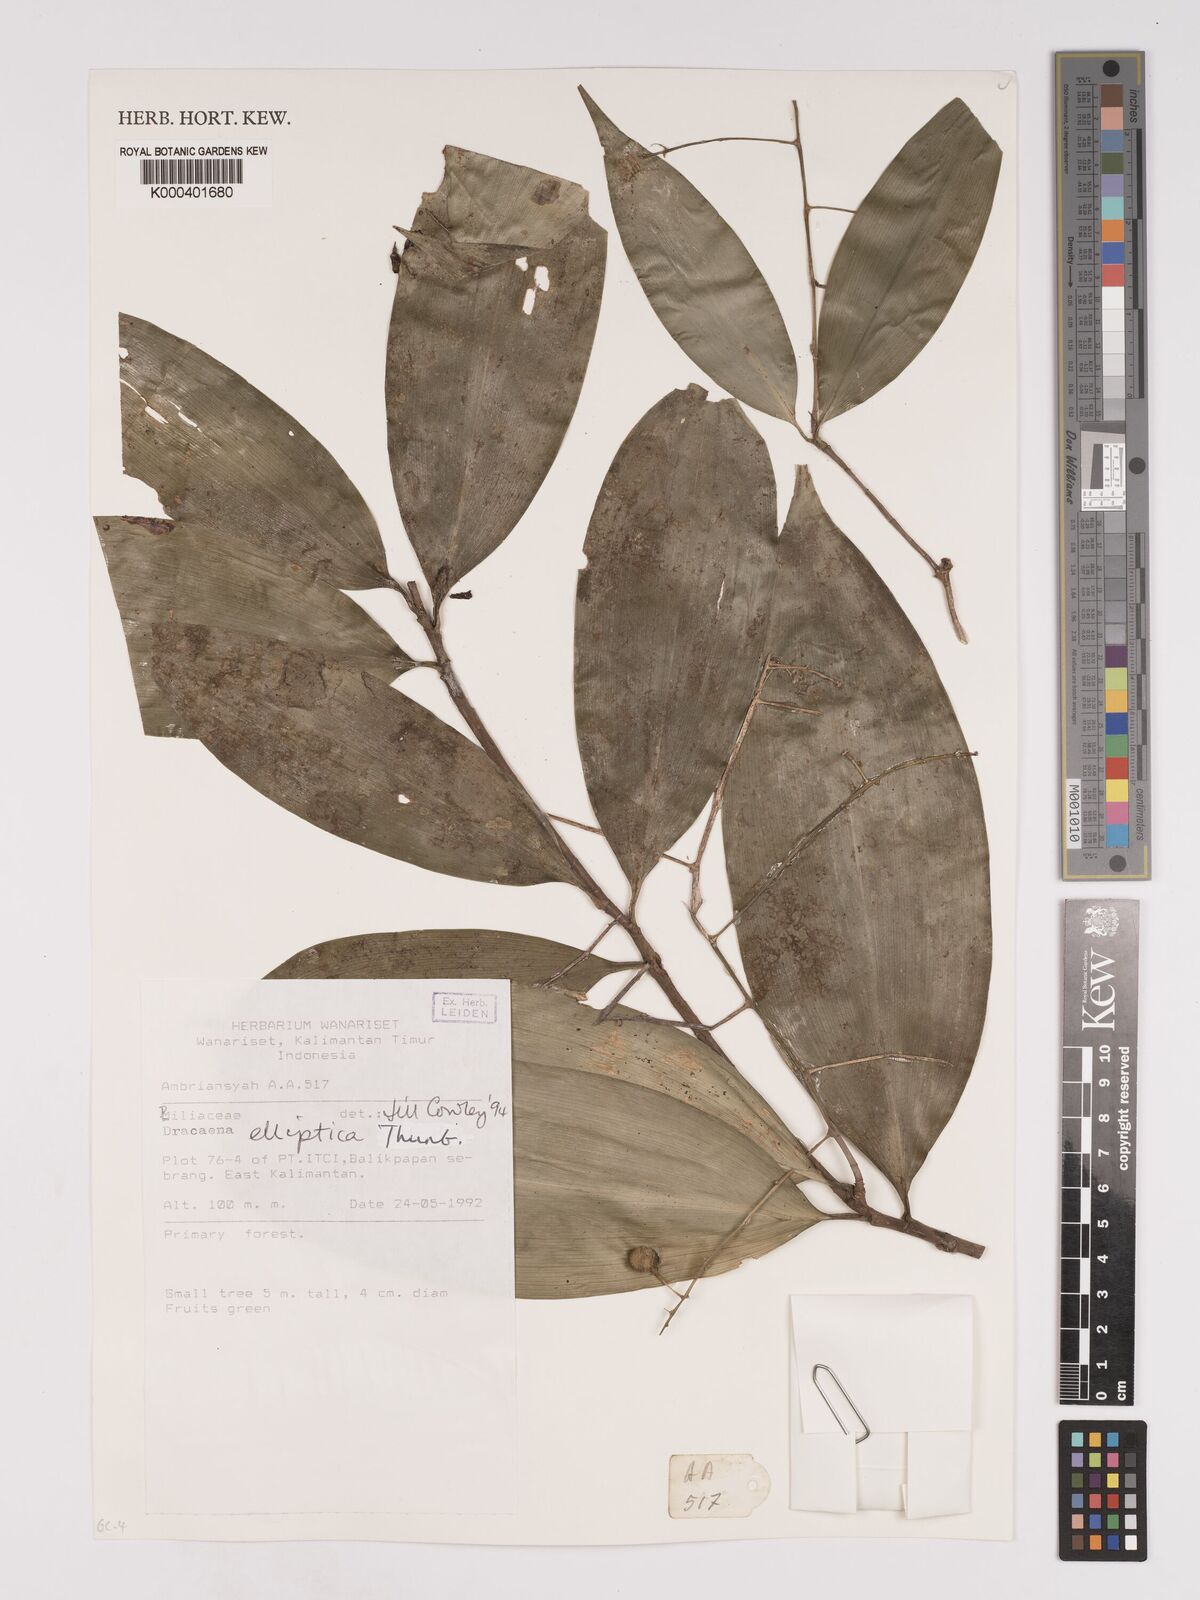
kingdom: Plantae
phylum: Tracheophyta
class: Liliopsida
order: Asparagales
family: Asparagaceae
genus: Dracaena
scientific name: Dracaena elliptica
